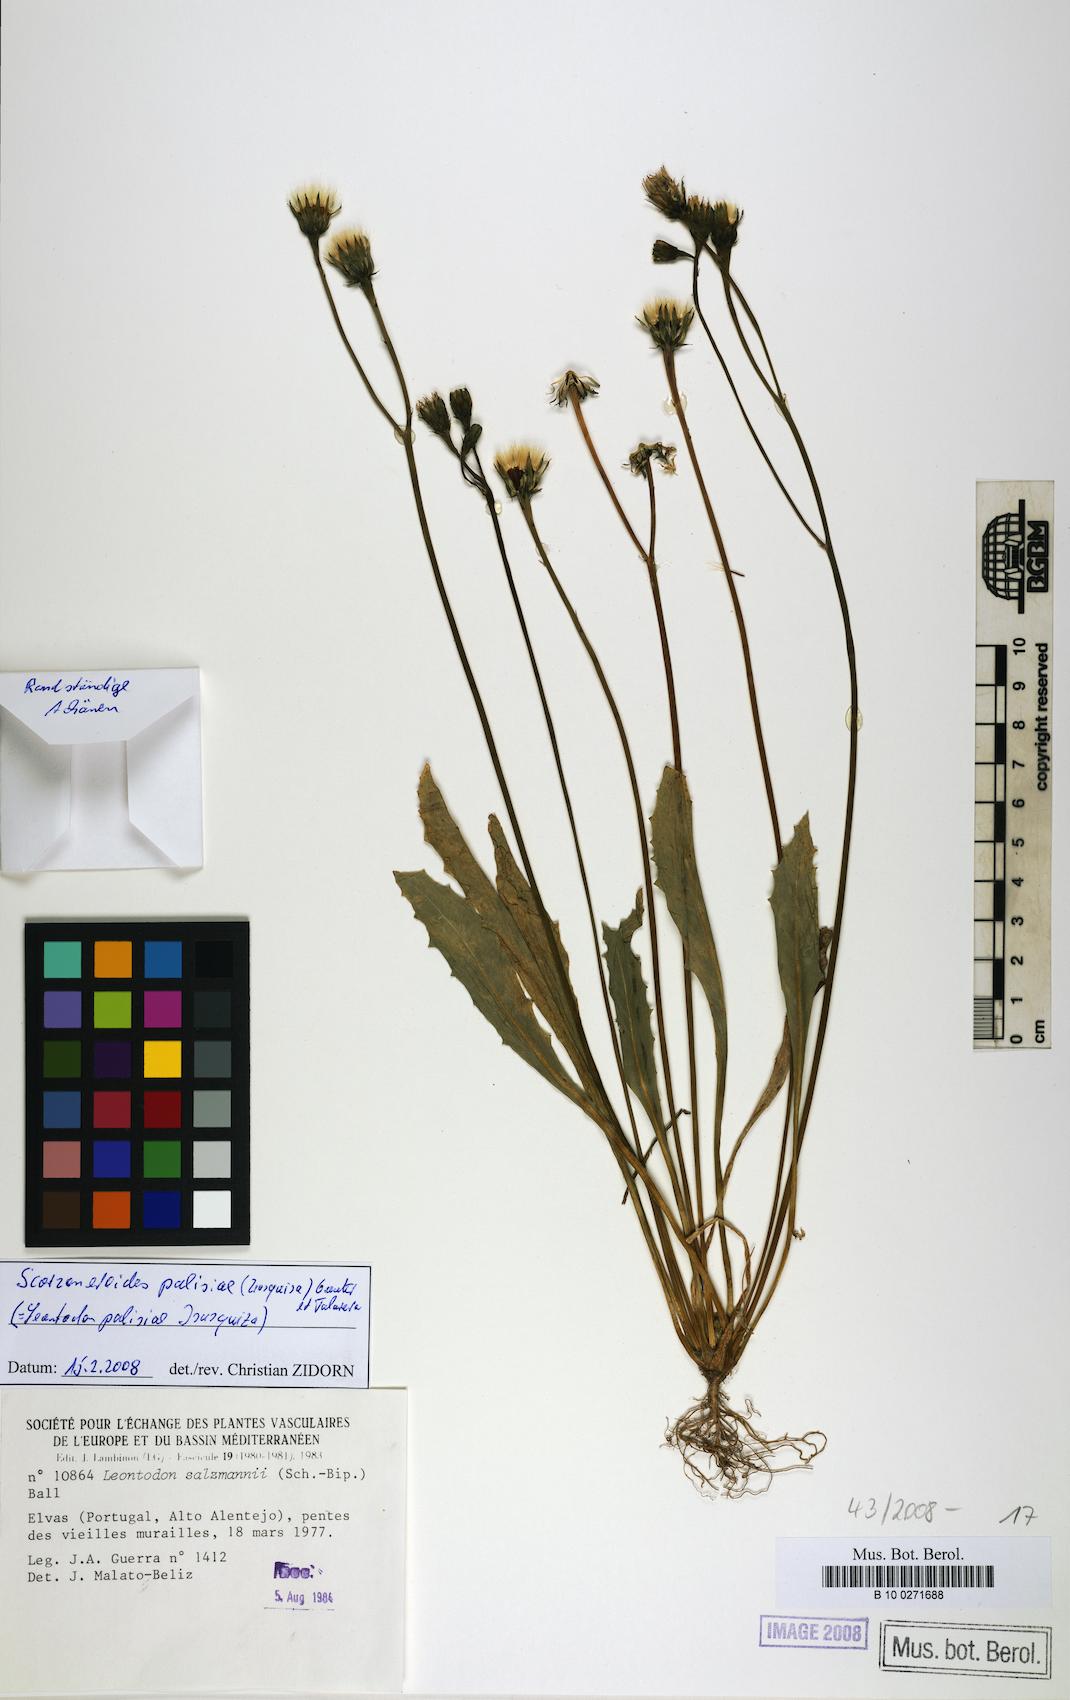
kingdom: Plantae
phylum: Tracheophyta
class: Magnoliopsida
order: Asterales
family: Asteraceae
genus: Scorzoneroides
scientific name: Scorzoneroides salzmannii
